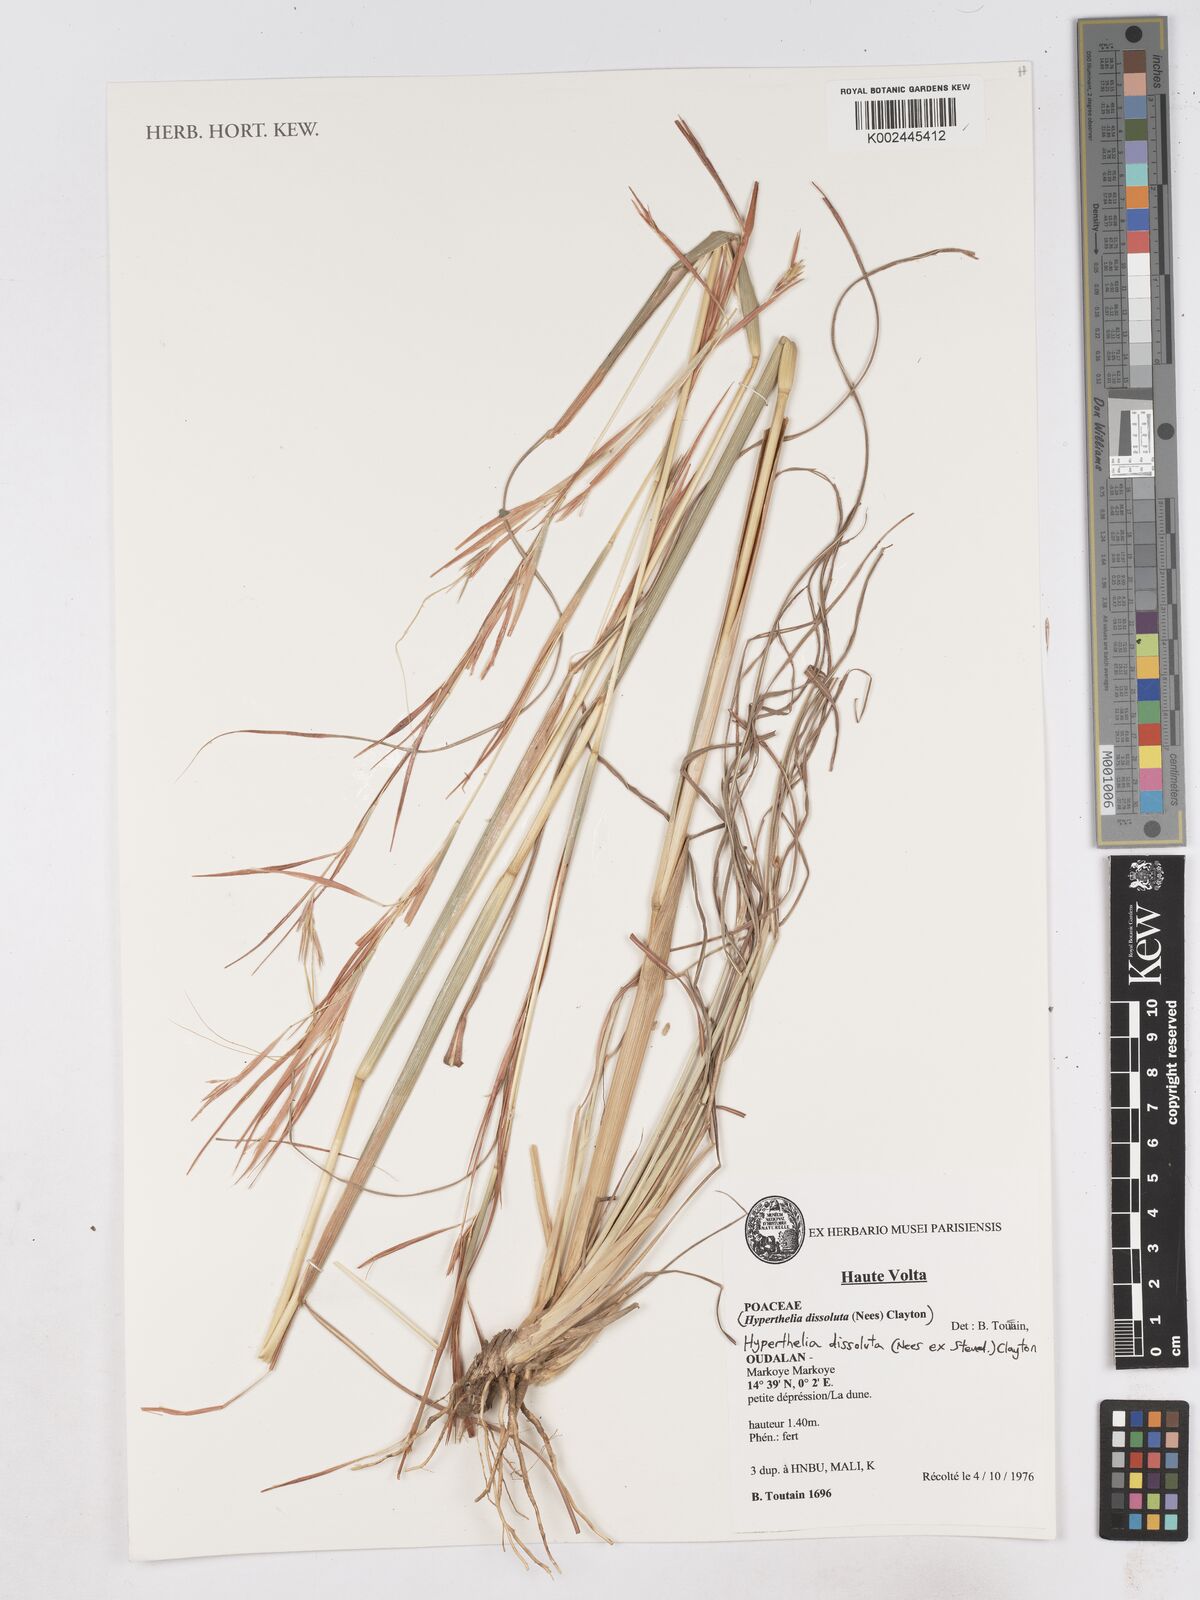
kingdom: Plantae
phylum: Tracheophyta
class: Liliopsida
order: Poales
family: Poaceae
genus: Hyperthelia
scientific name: Hyperthelia dissoluta
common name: Yellow thatching grass
